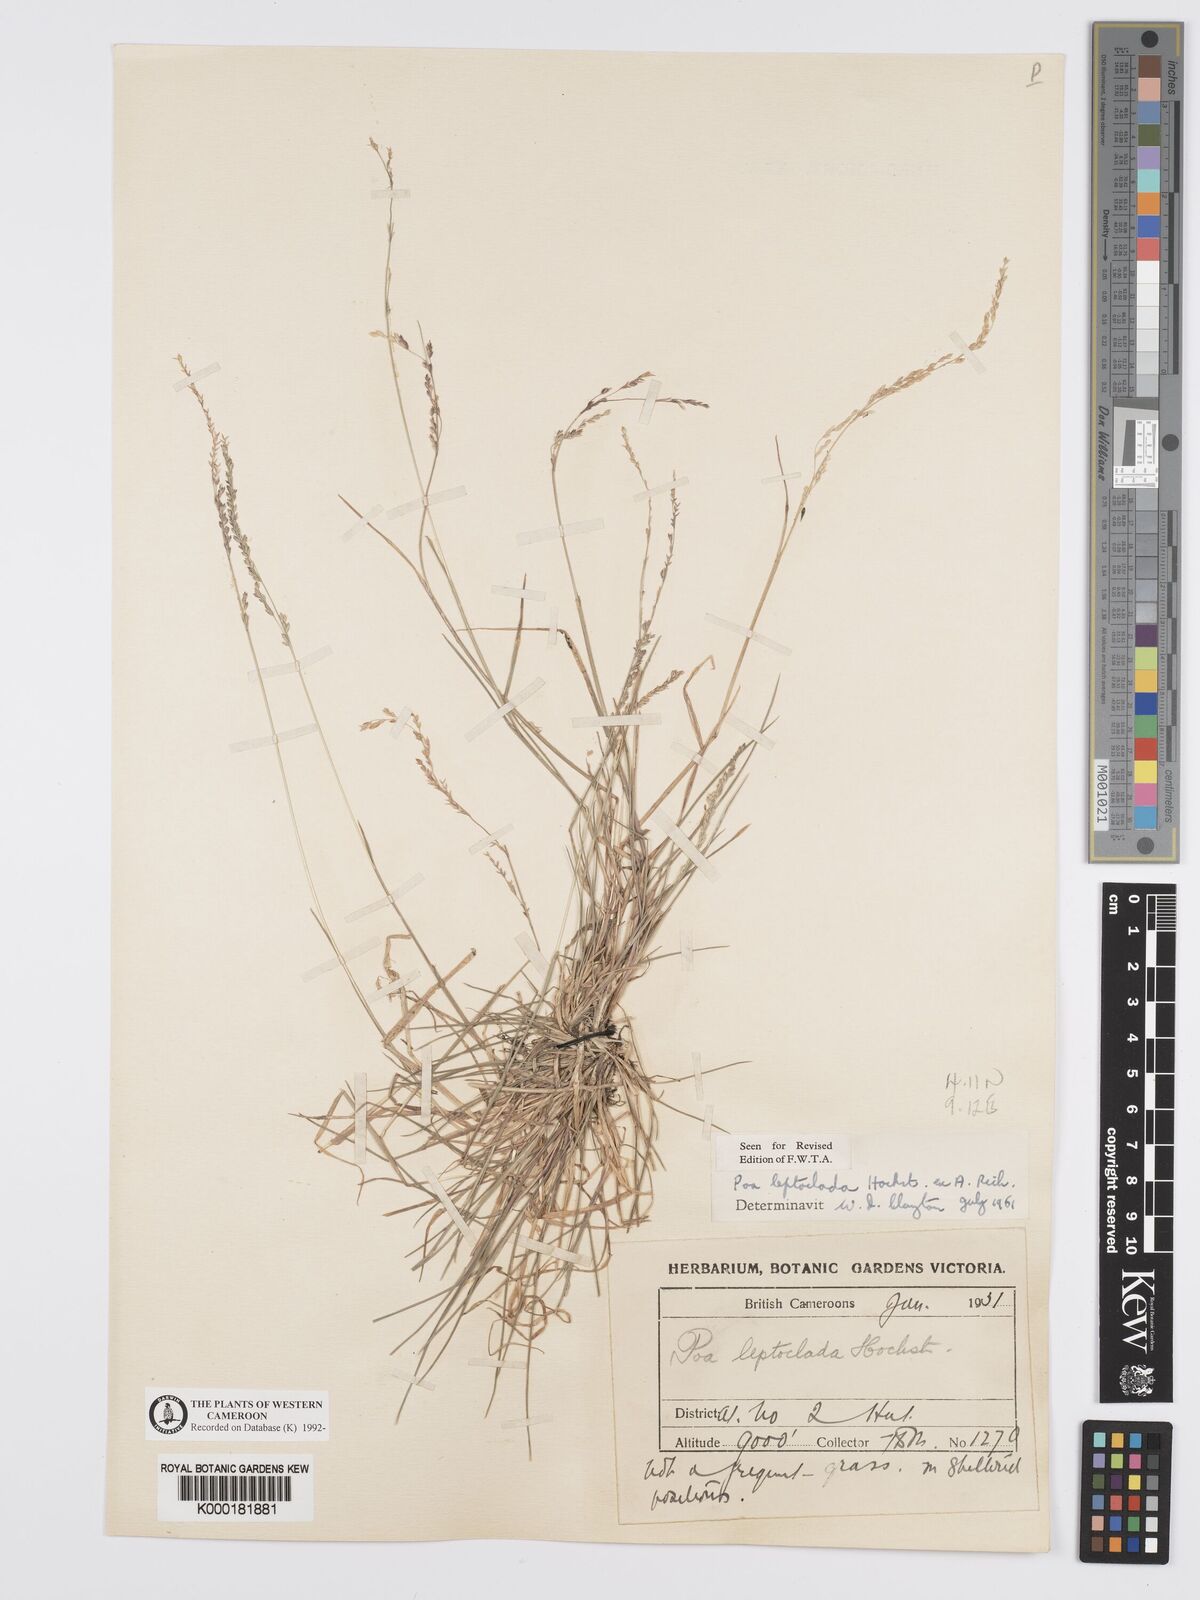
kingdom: Plantae
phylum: Tracheophyta
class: Liliopsida
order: Poales
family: Poaceae
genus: Poa
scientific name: Poa leptoclada
